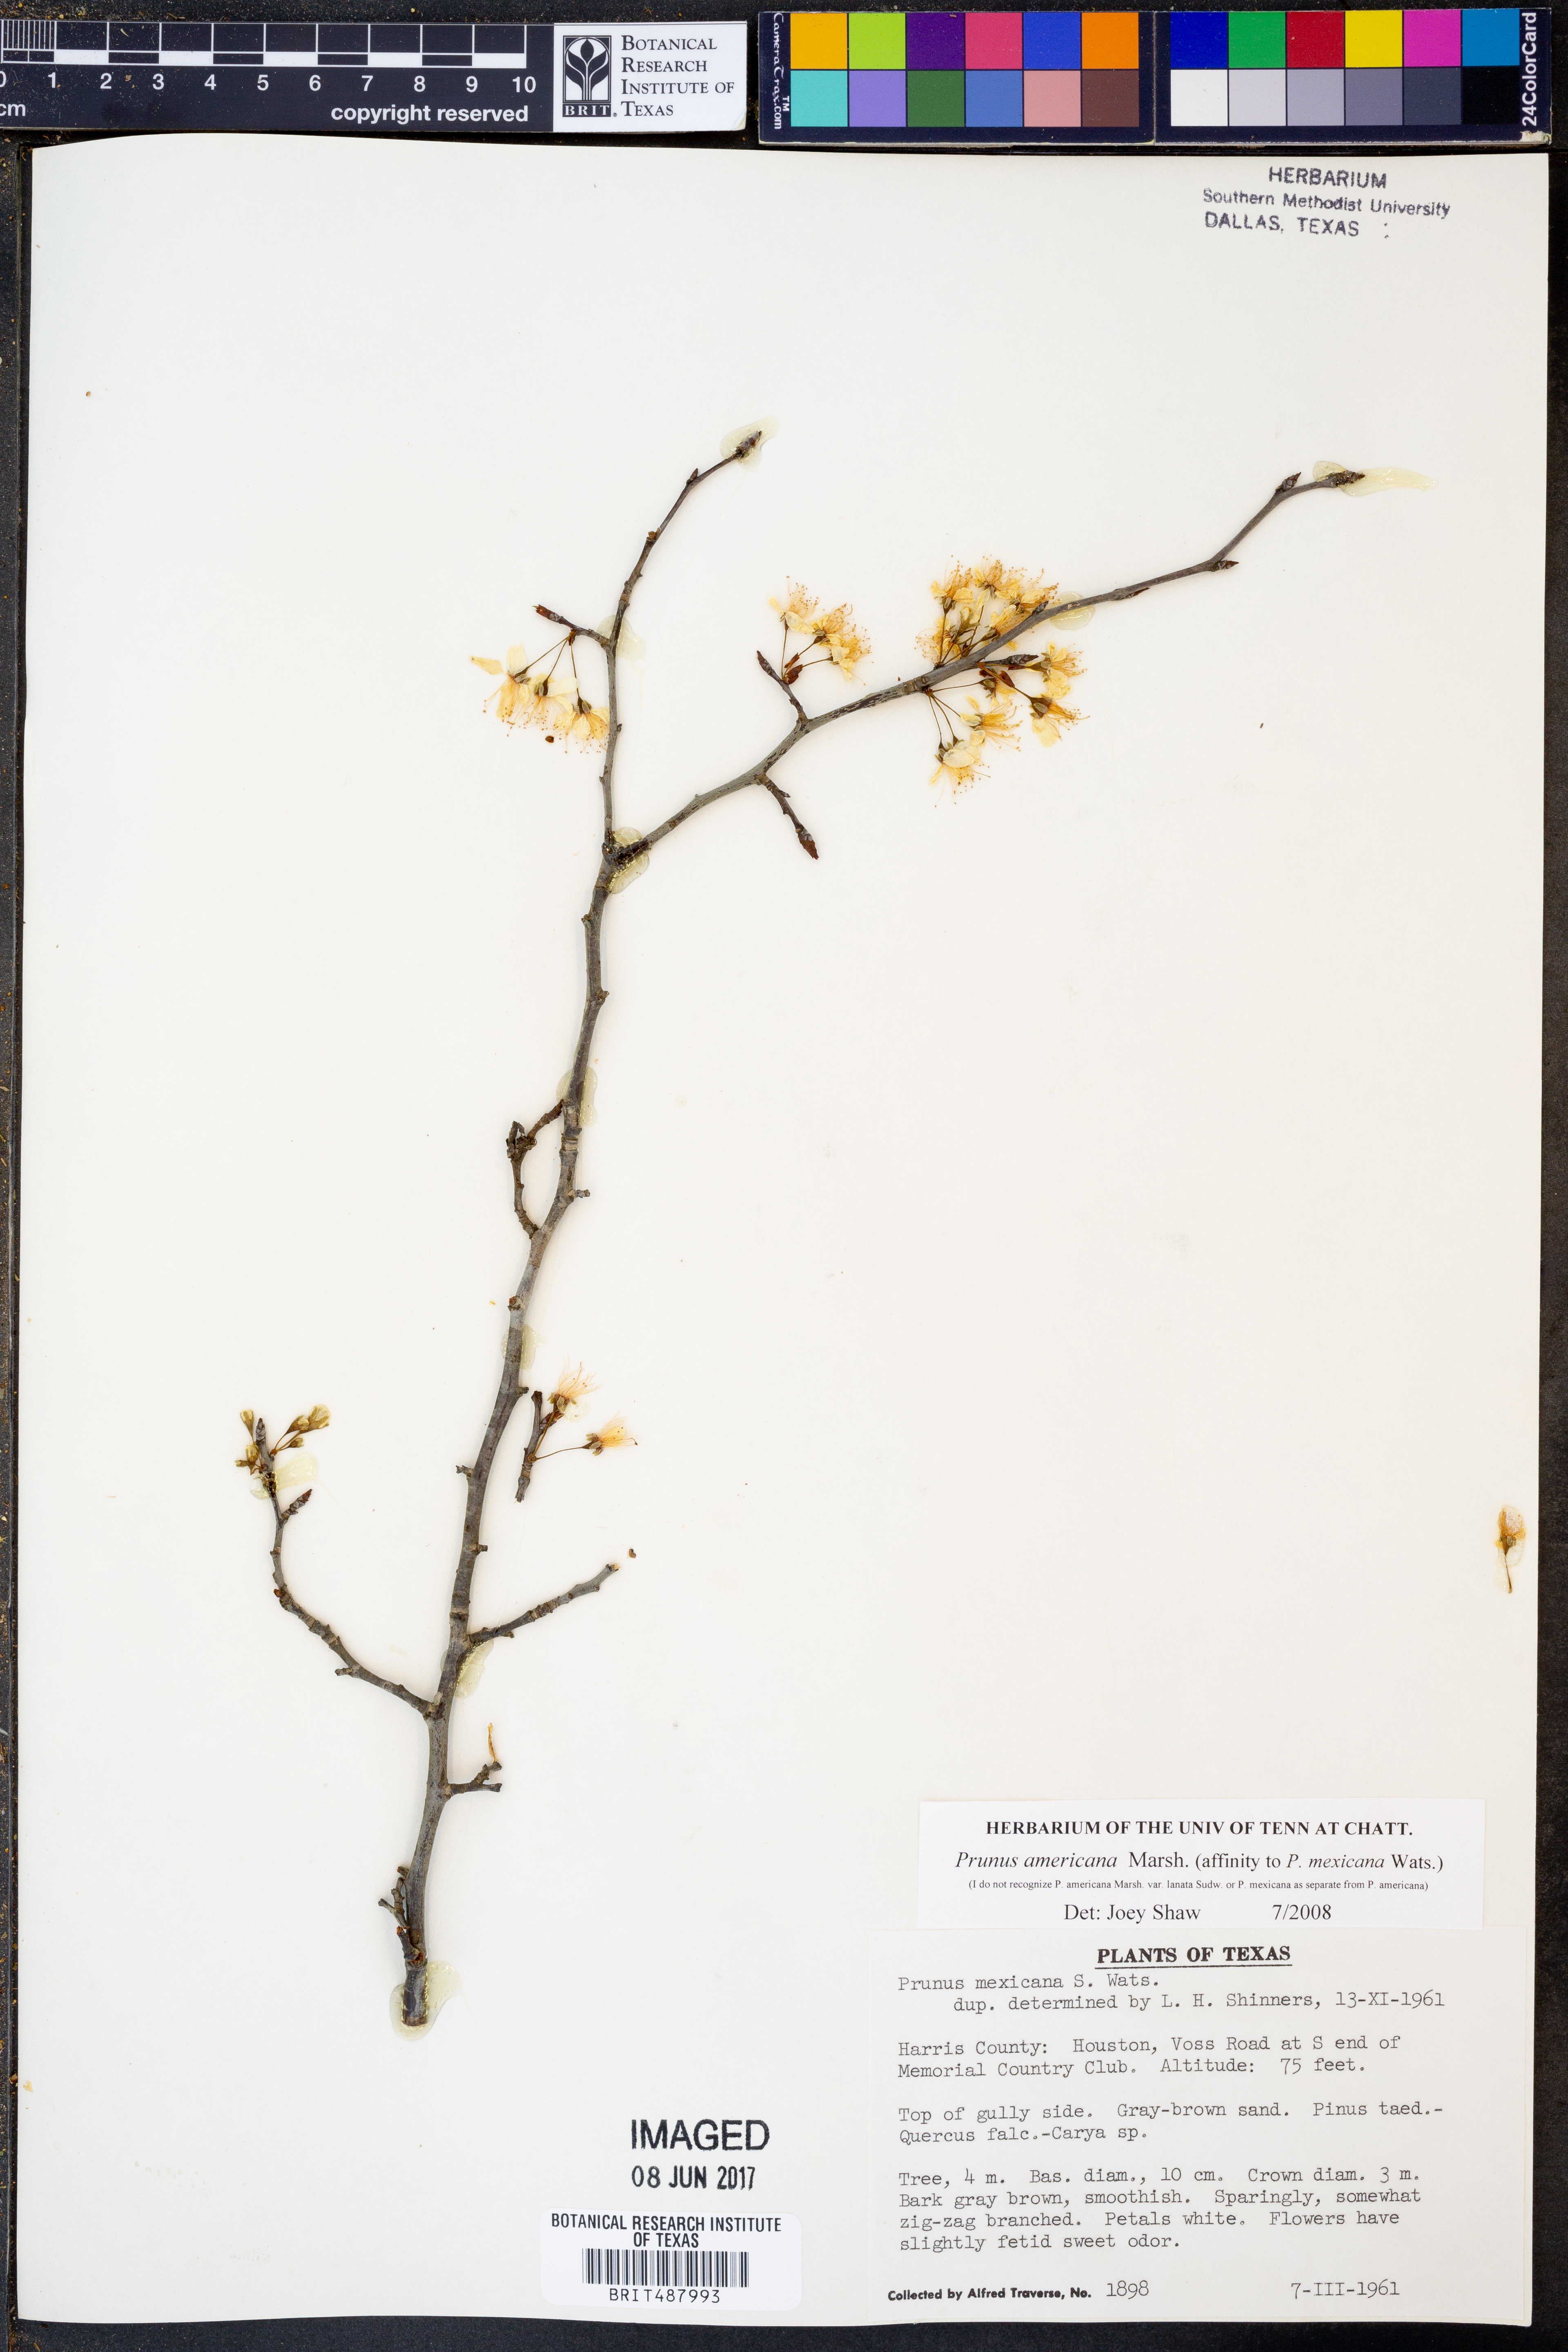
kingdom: Plantae
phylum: Tracheophyta
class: Magnoliopsida
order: Rosales
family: Rosaceae
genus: Prunus
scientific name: Prunus americana
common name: American plum
